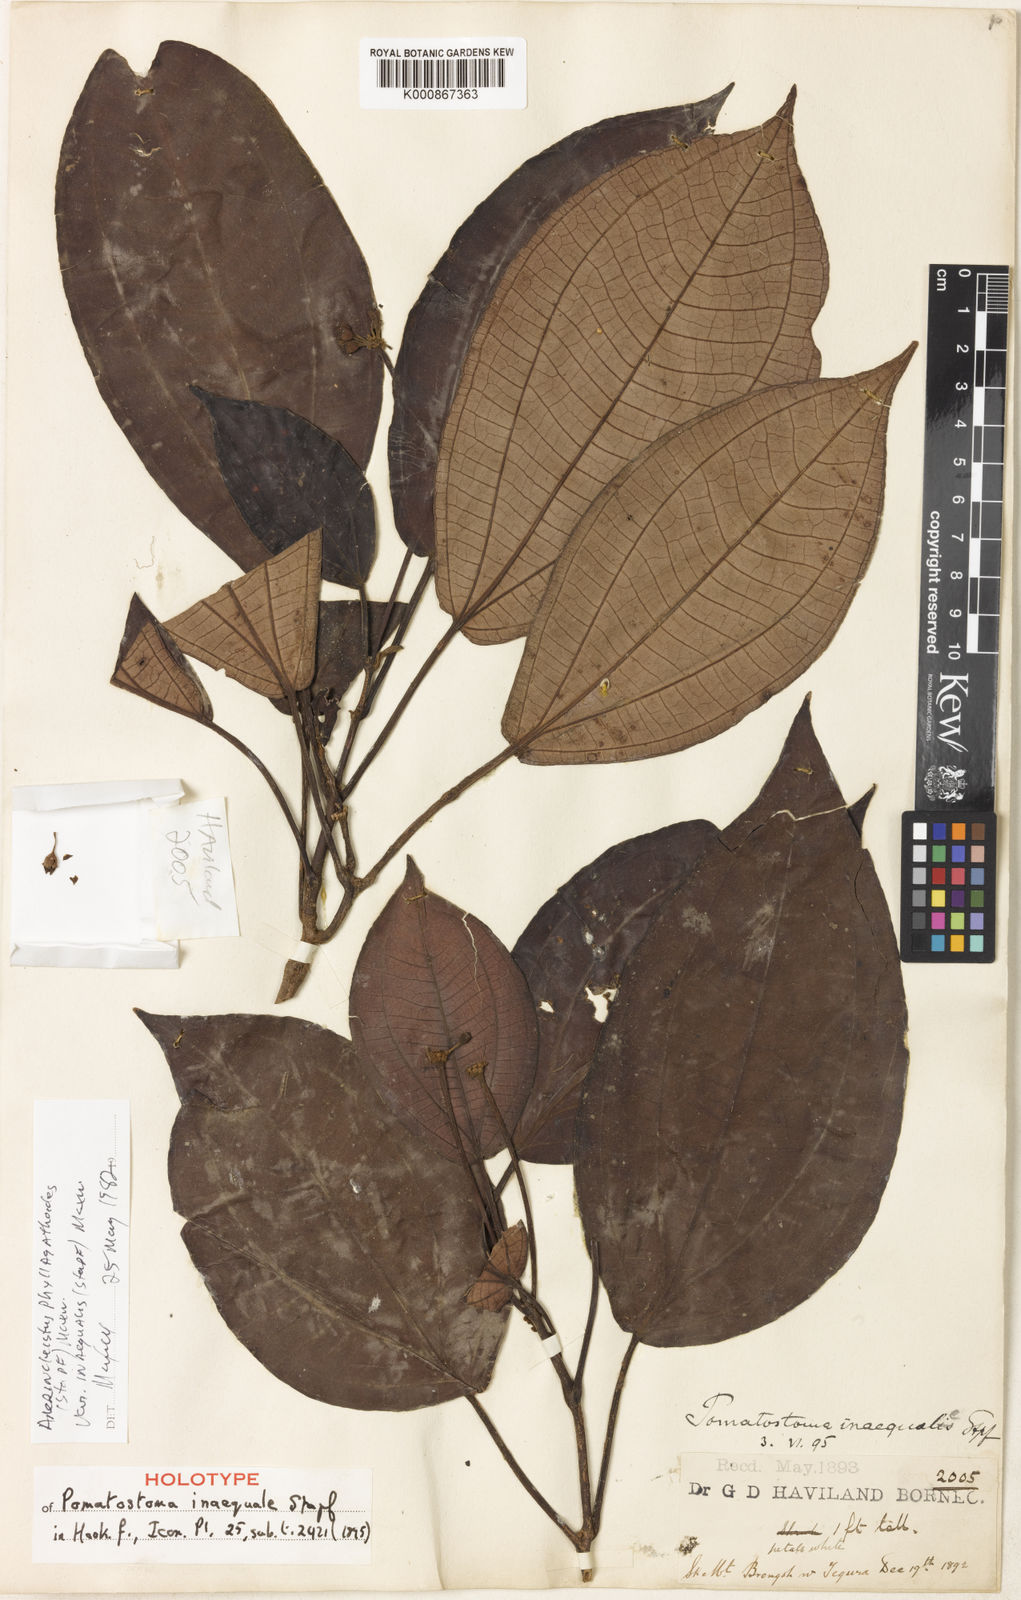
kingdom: Plantae
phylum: Tracheophyta
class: Magnoliopsida
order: Myrtales
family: Melastomataceae
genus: Anerincleistus
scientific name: Anerincleistus phyllagathoides
